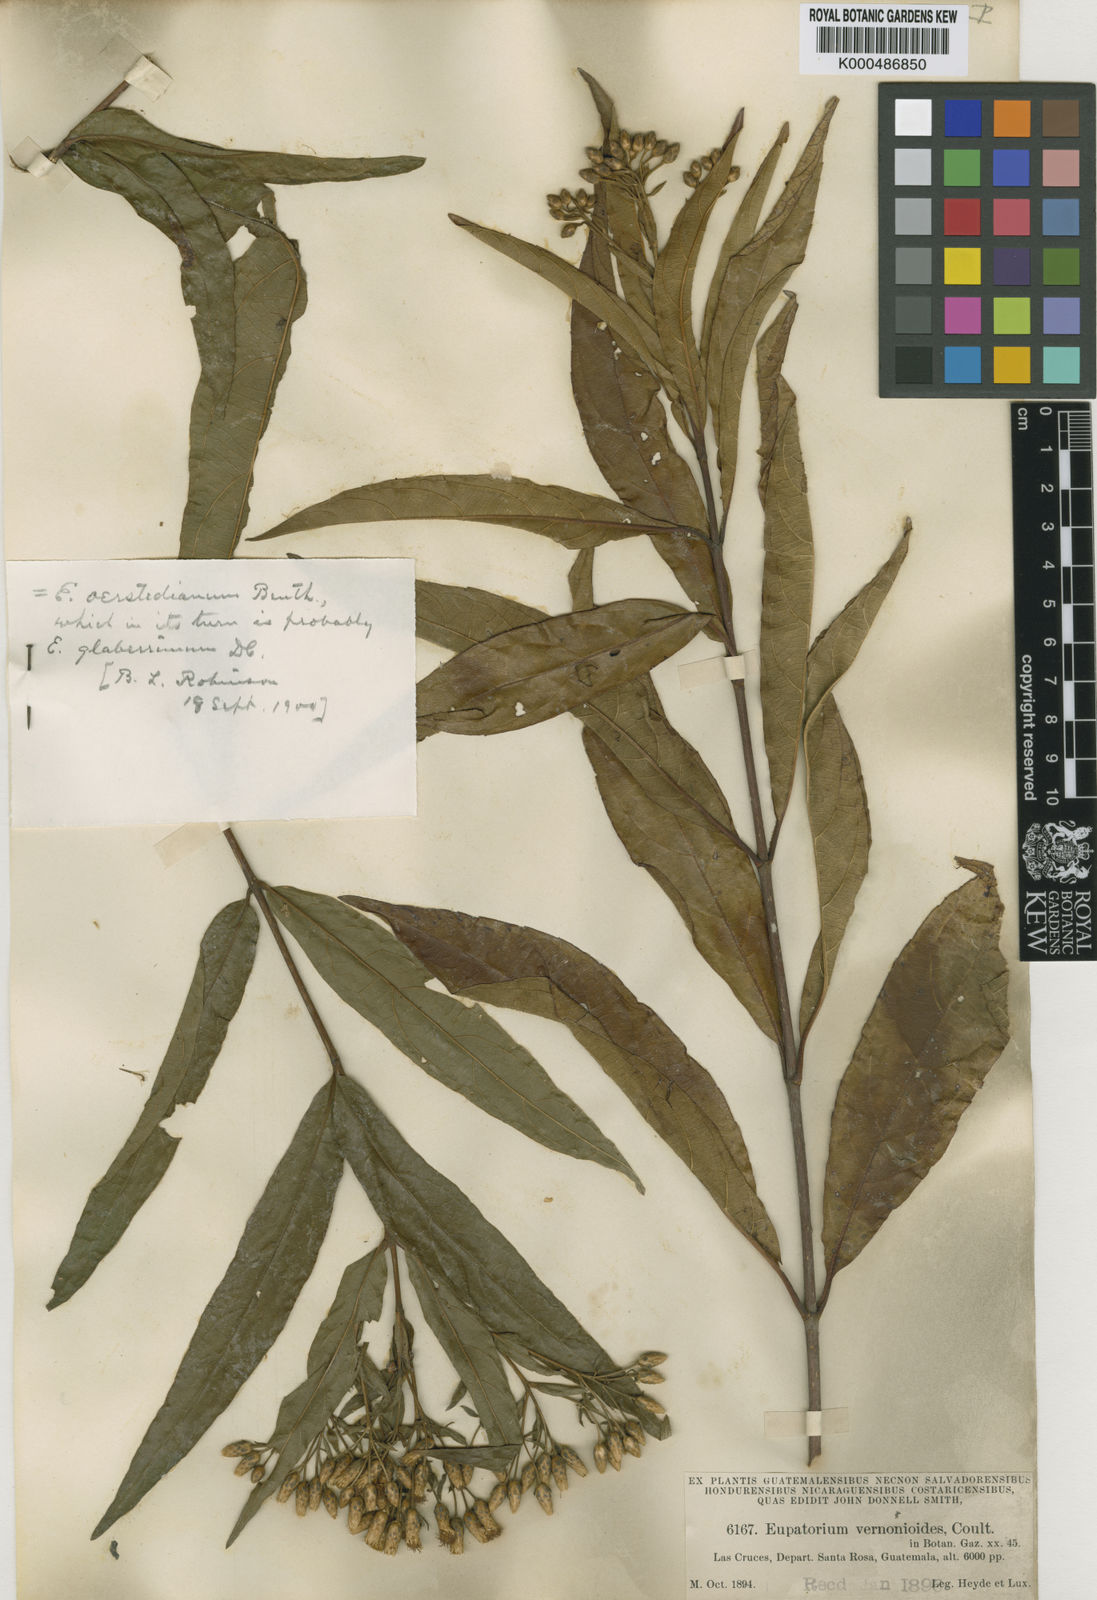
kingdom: Plantae
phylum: Tracheophyta
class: Magnoliopsida
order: Asterales
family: Asteraceae
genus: Chromolaena
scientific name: Chromolaena glaberrima
